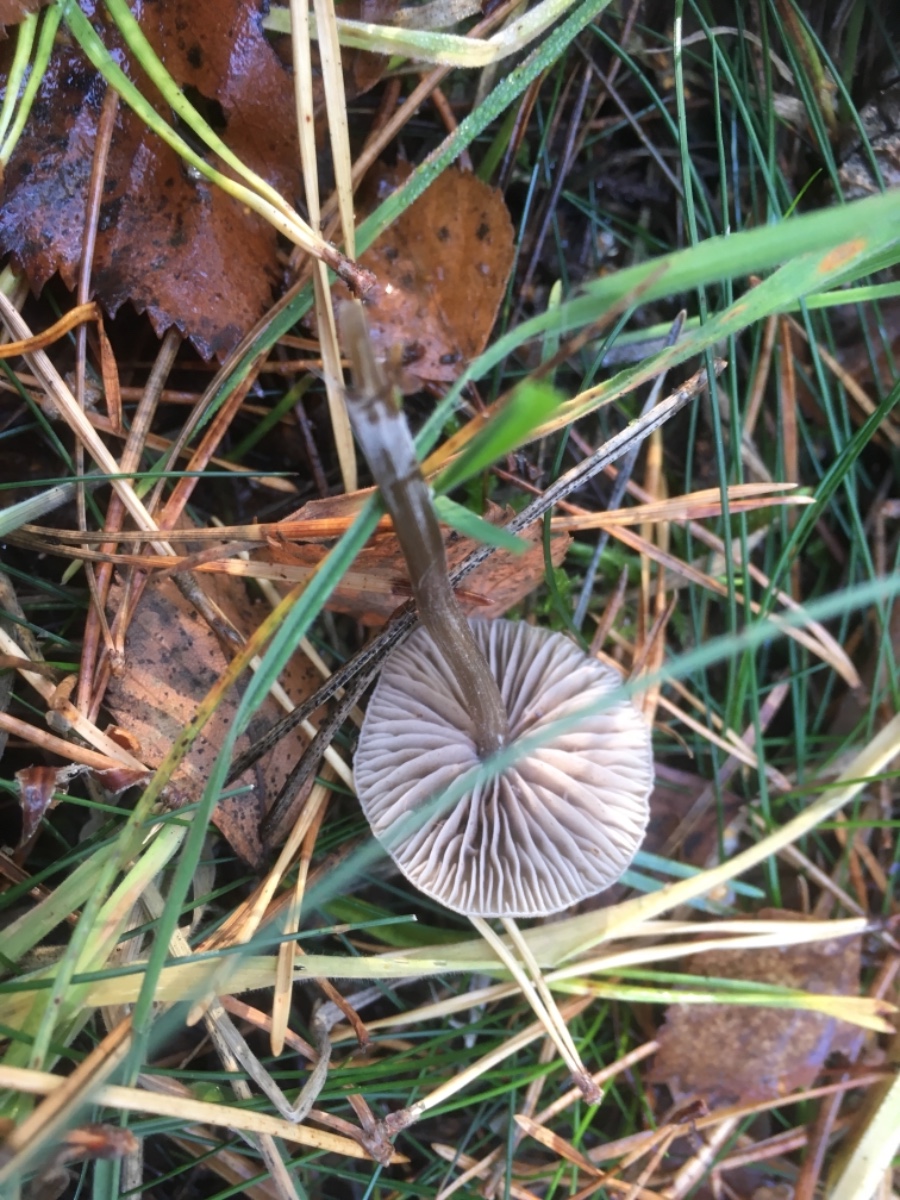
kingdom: Fungi
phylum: Basidiomycota
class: Agaricomycetes
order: Agaricales
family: Entolomataceae
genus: Entoloma
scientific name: Entoloma
